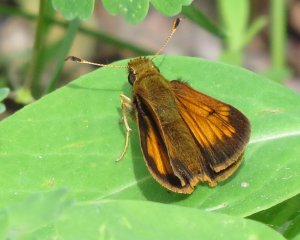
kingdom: Animalia
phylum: Arthropoda
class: Insecta
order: Lepidoptera
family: Hesperiidae
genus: Lon
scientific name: Lon hobomok
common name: Hobomok Skipper
